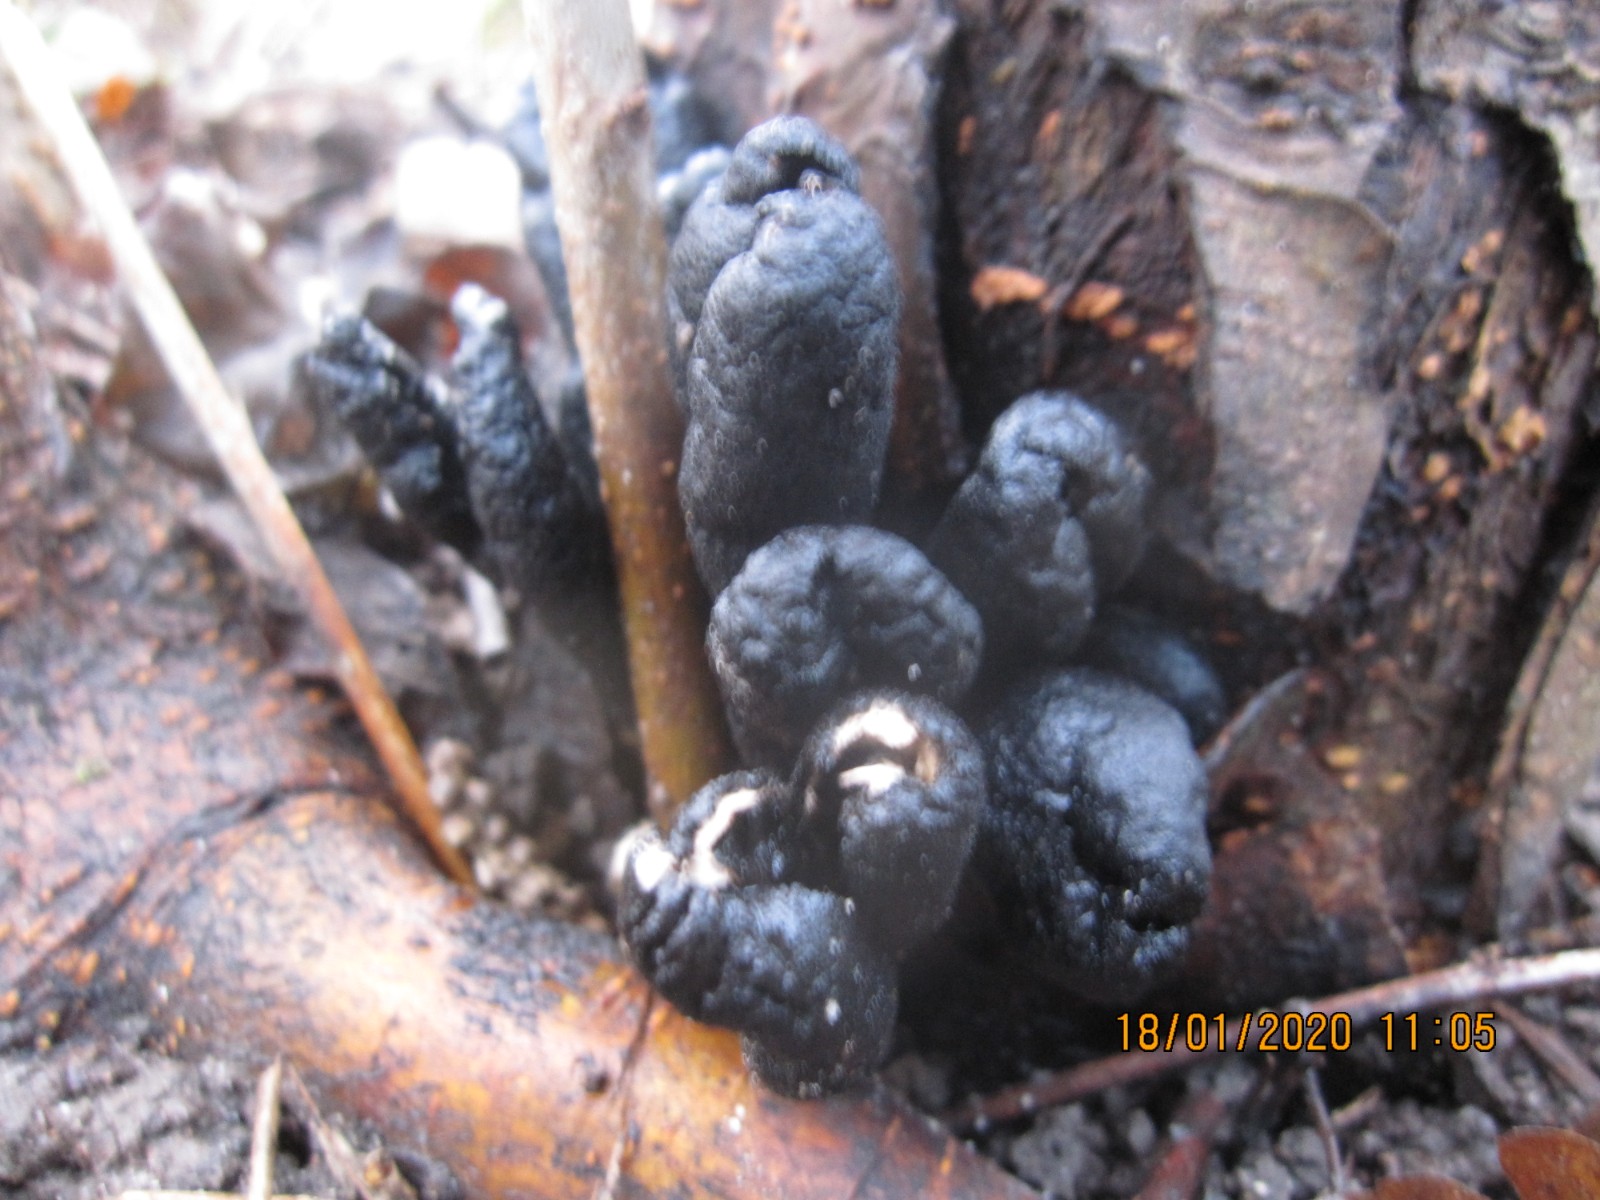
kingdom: Fungi
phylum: Ascomycota
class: Sordariomycetes
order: Xylariales
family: Xylariaceae
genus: Xylaria
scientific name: Xylaria polymorpha
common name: kølle-stødsvamp
